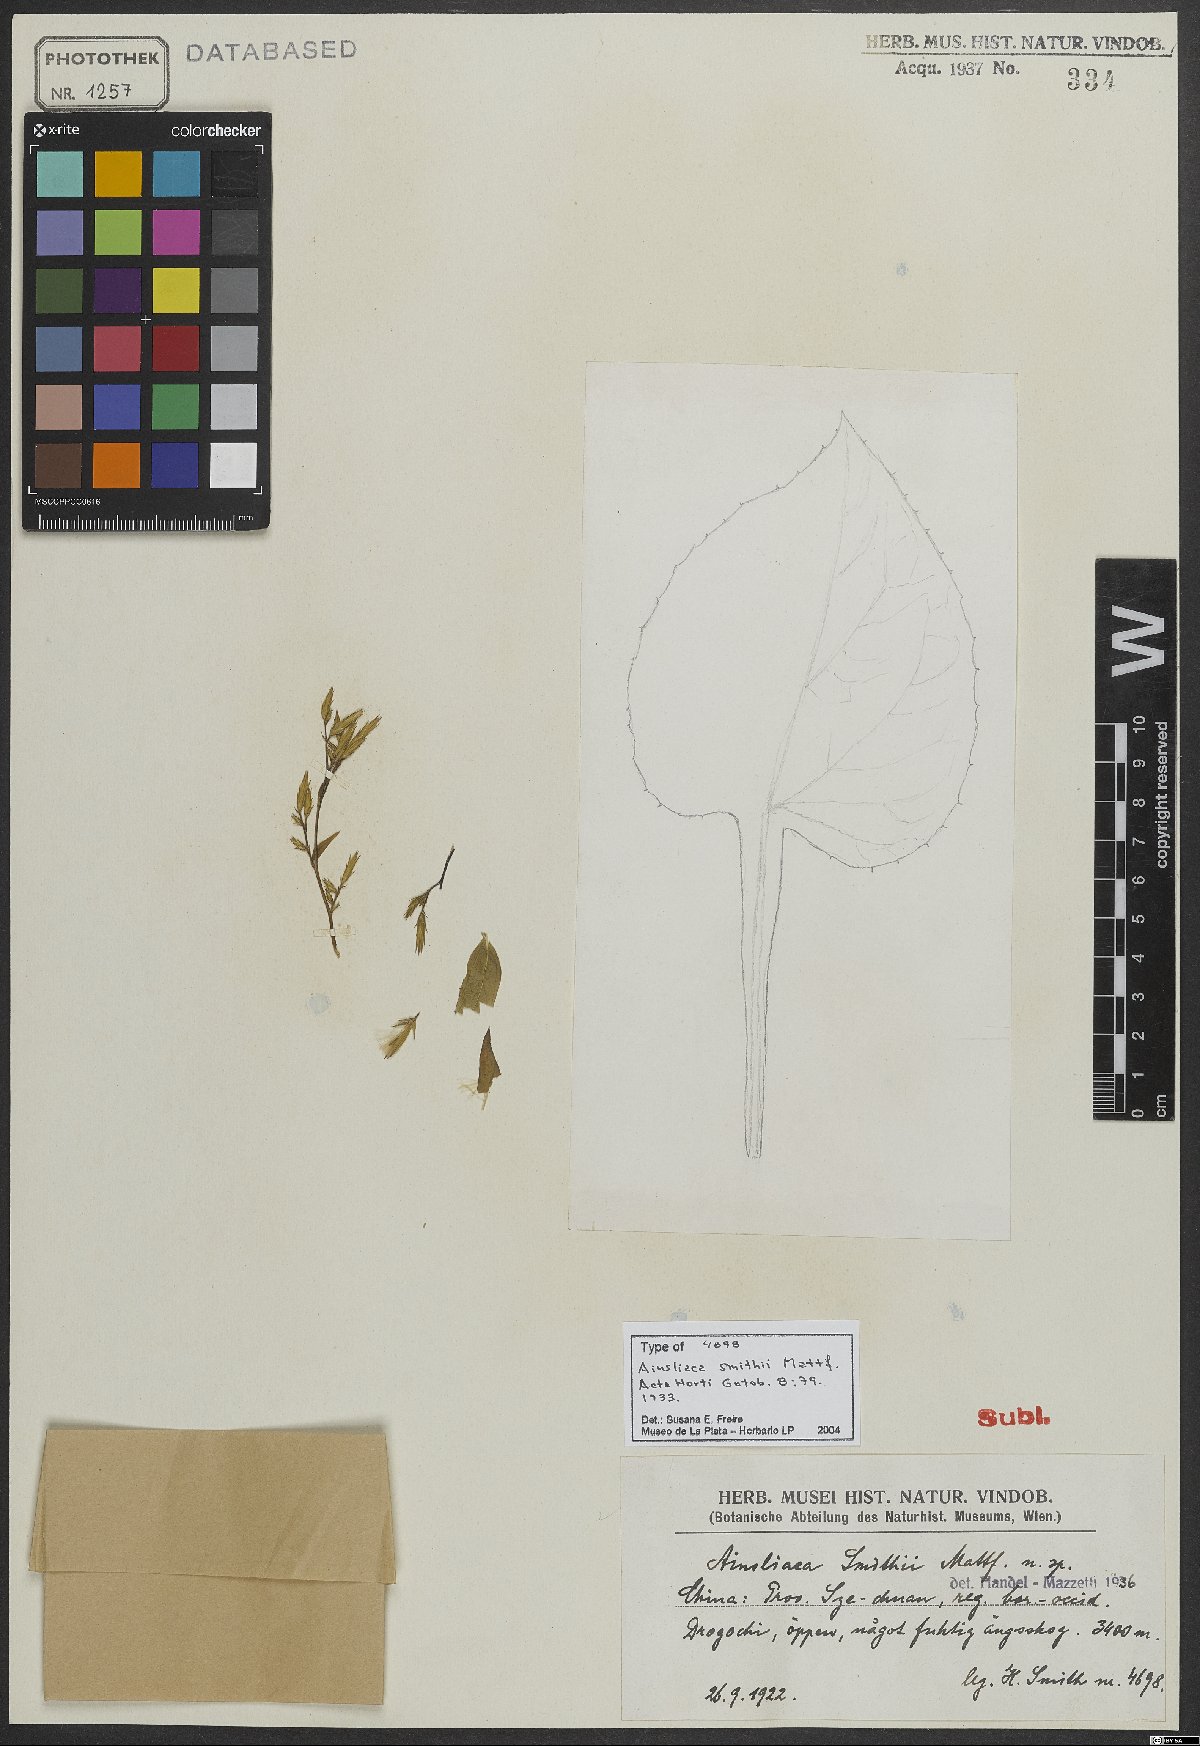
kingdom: Plantae
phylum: Tracheophyta
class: Magnoliopsida
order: Asterales
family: Asteraceae
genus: Ainsliaea
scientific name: Ainsliaea smithii
